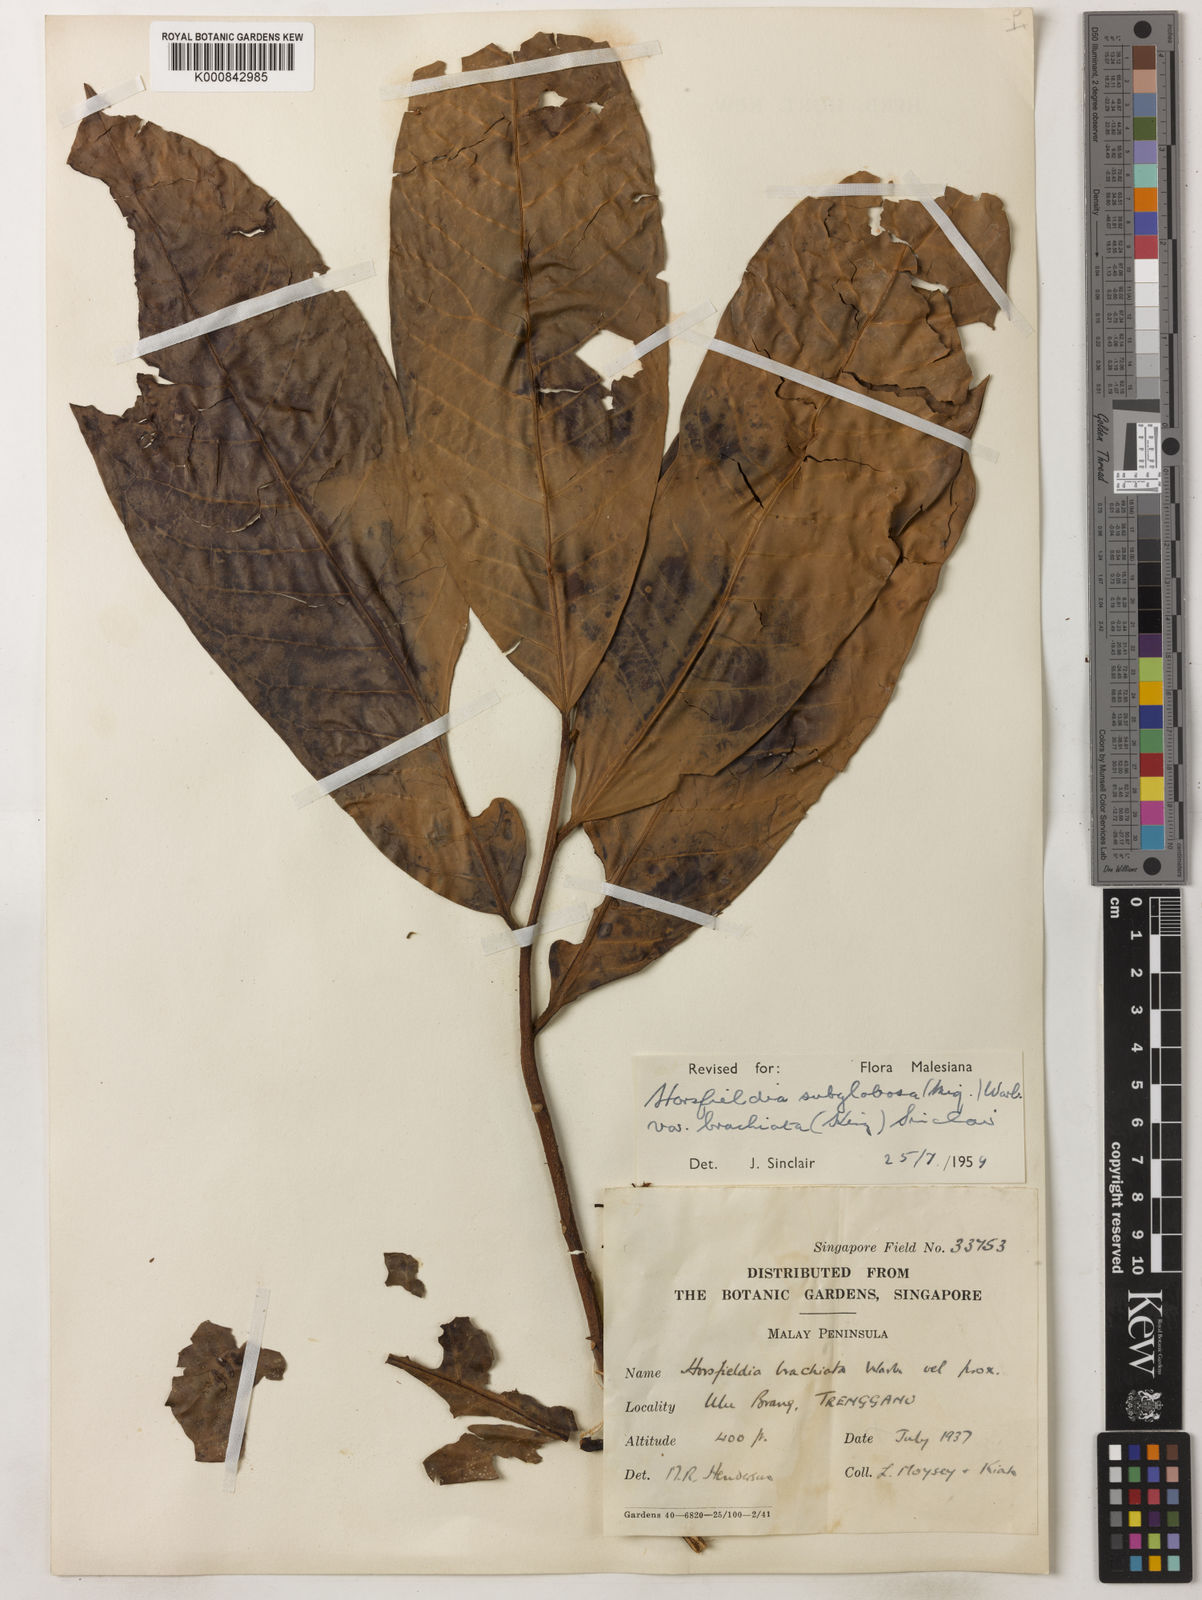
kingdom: Plantae
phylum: Tracheophyta
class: Magnoliopsida
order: Magnoliales
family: Myristicaceae
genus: Horsfieldia
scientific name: Horsfieldia brachiata
